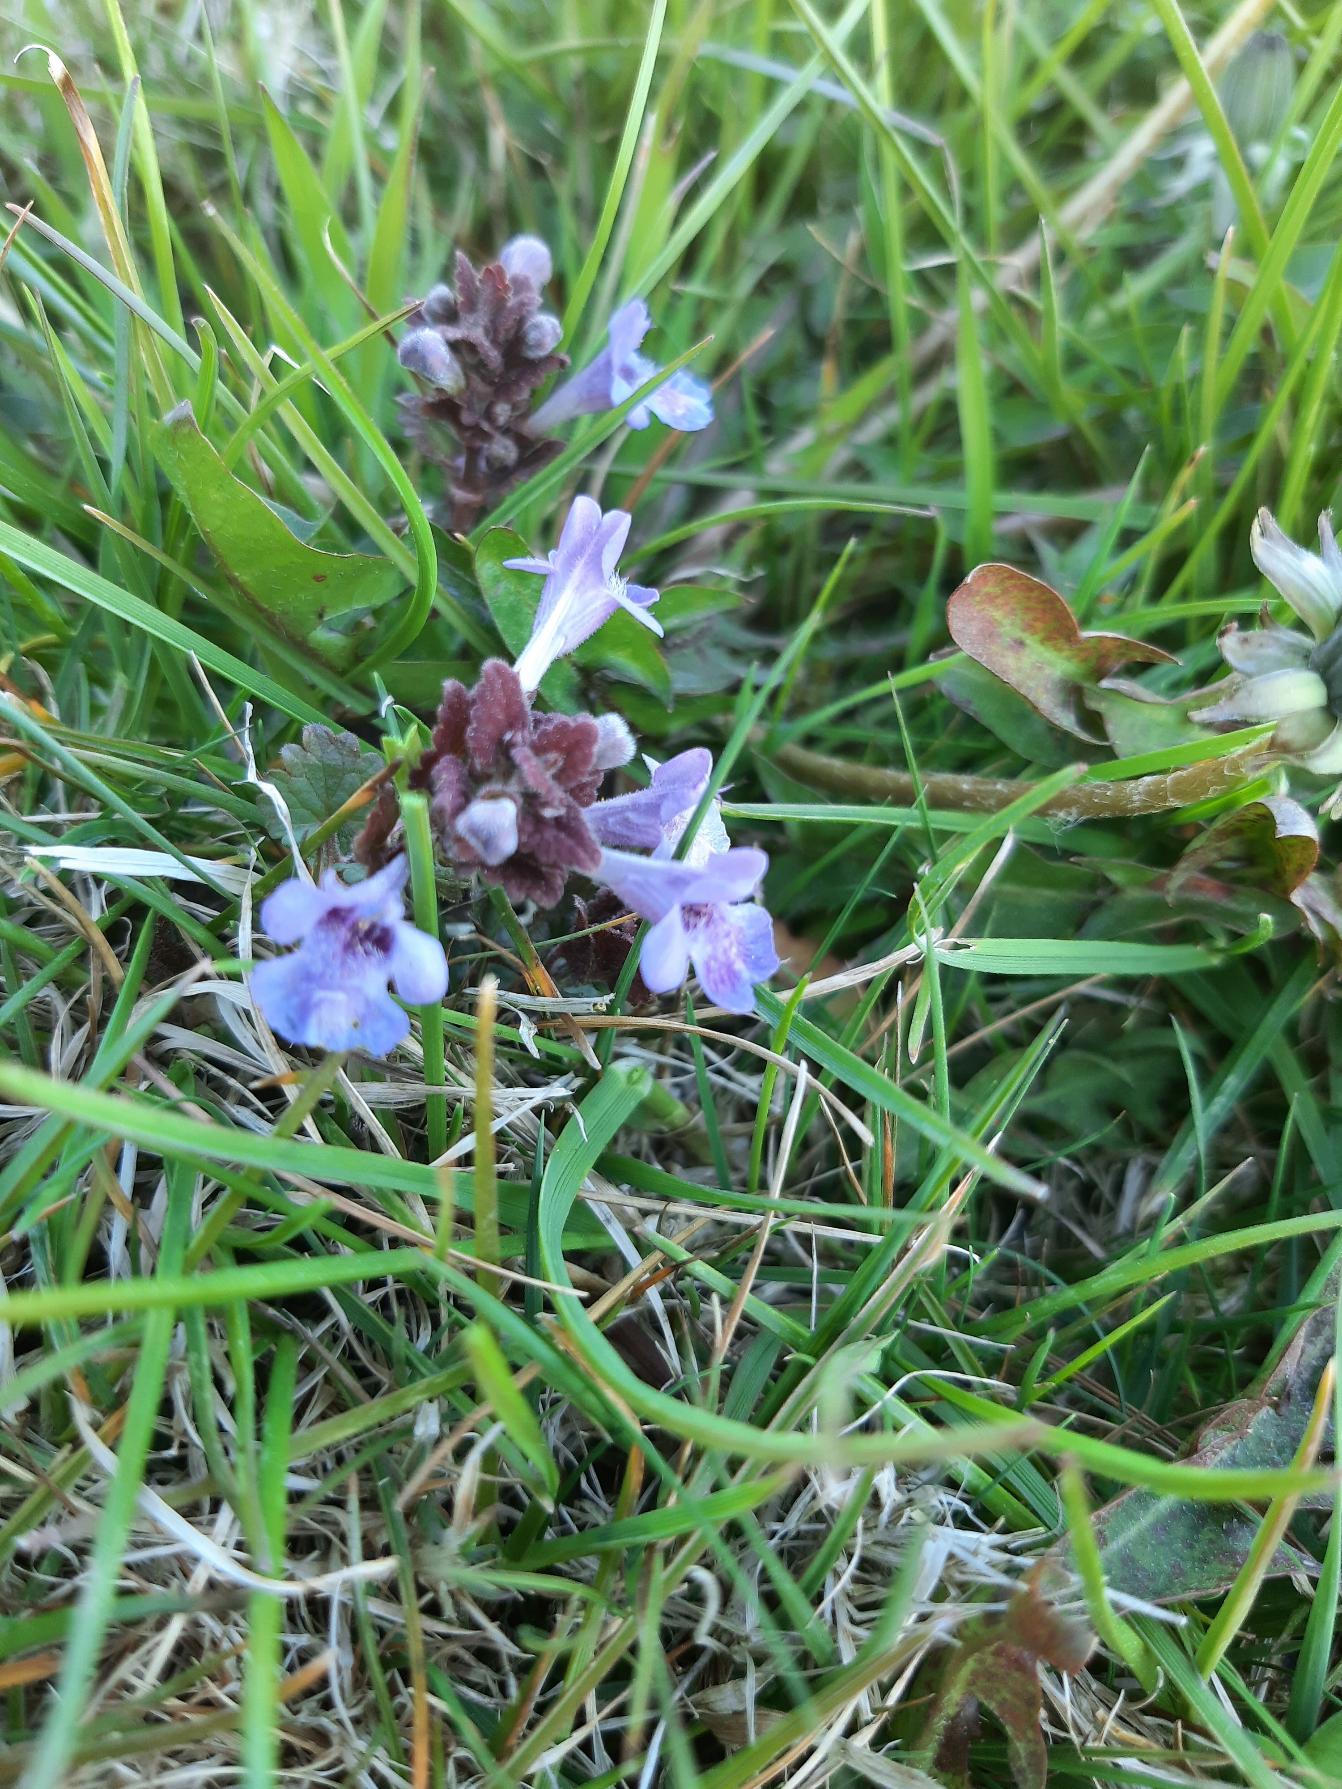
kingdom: Plantae
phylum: Tracheophyta
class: Magnoliopsida
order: Lamiales
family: Lamiaceae
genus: Glechoma
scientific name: Glechoma hederacea
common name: Korsknap
